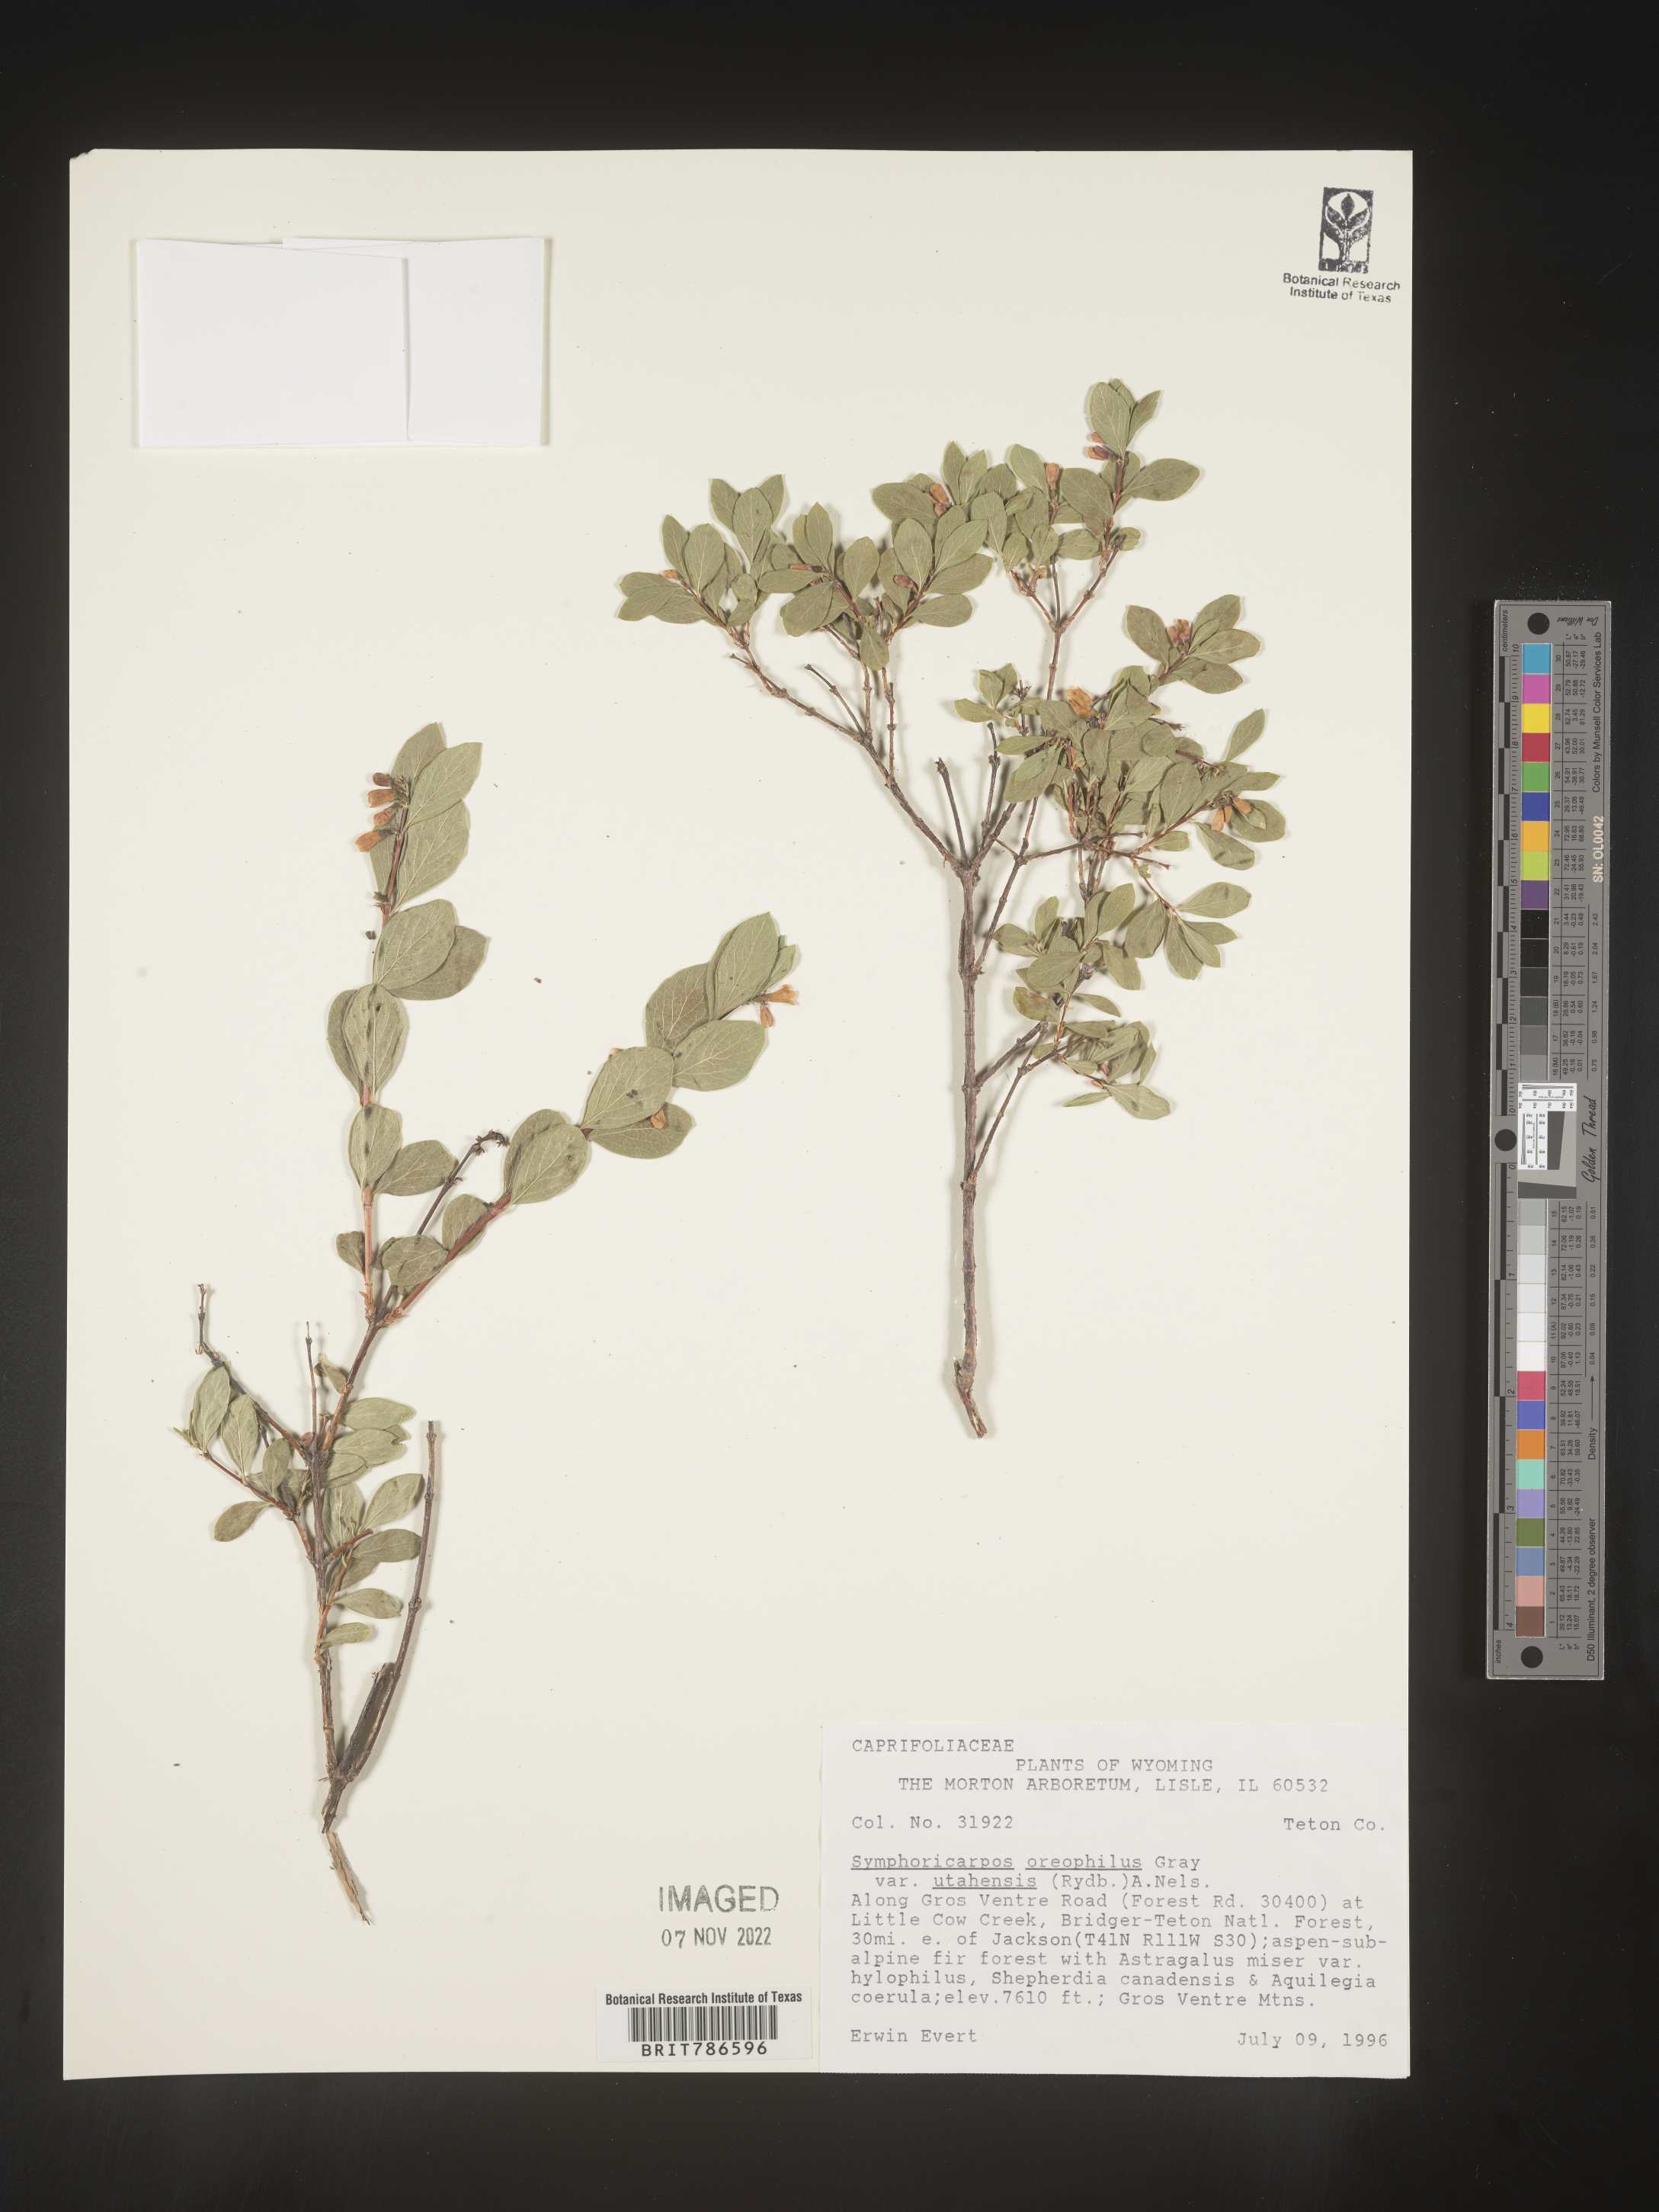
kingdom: Plantae
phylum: Tracheophyta
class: Magnoliopsida
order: Dipsacales
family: Caprifoliaceae
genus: Symphoricarpos
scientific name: Symphoricarpos oreophilus
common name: Mountain snowberry
